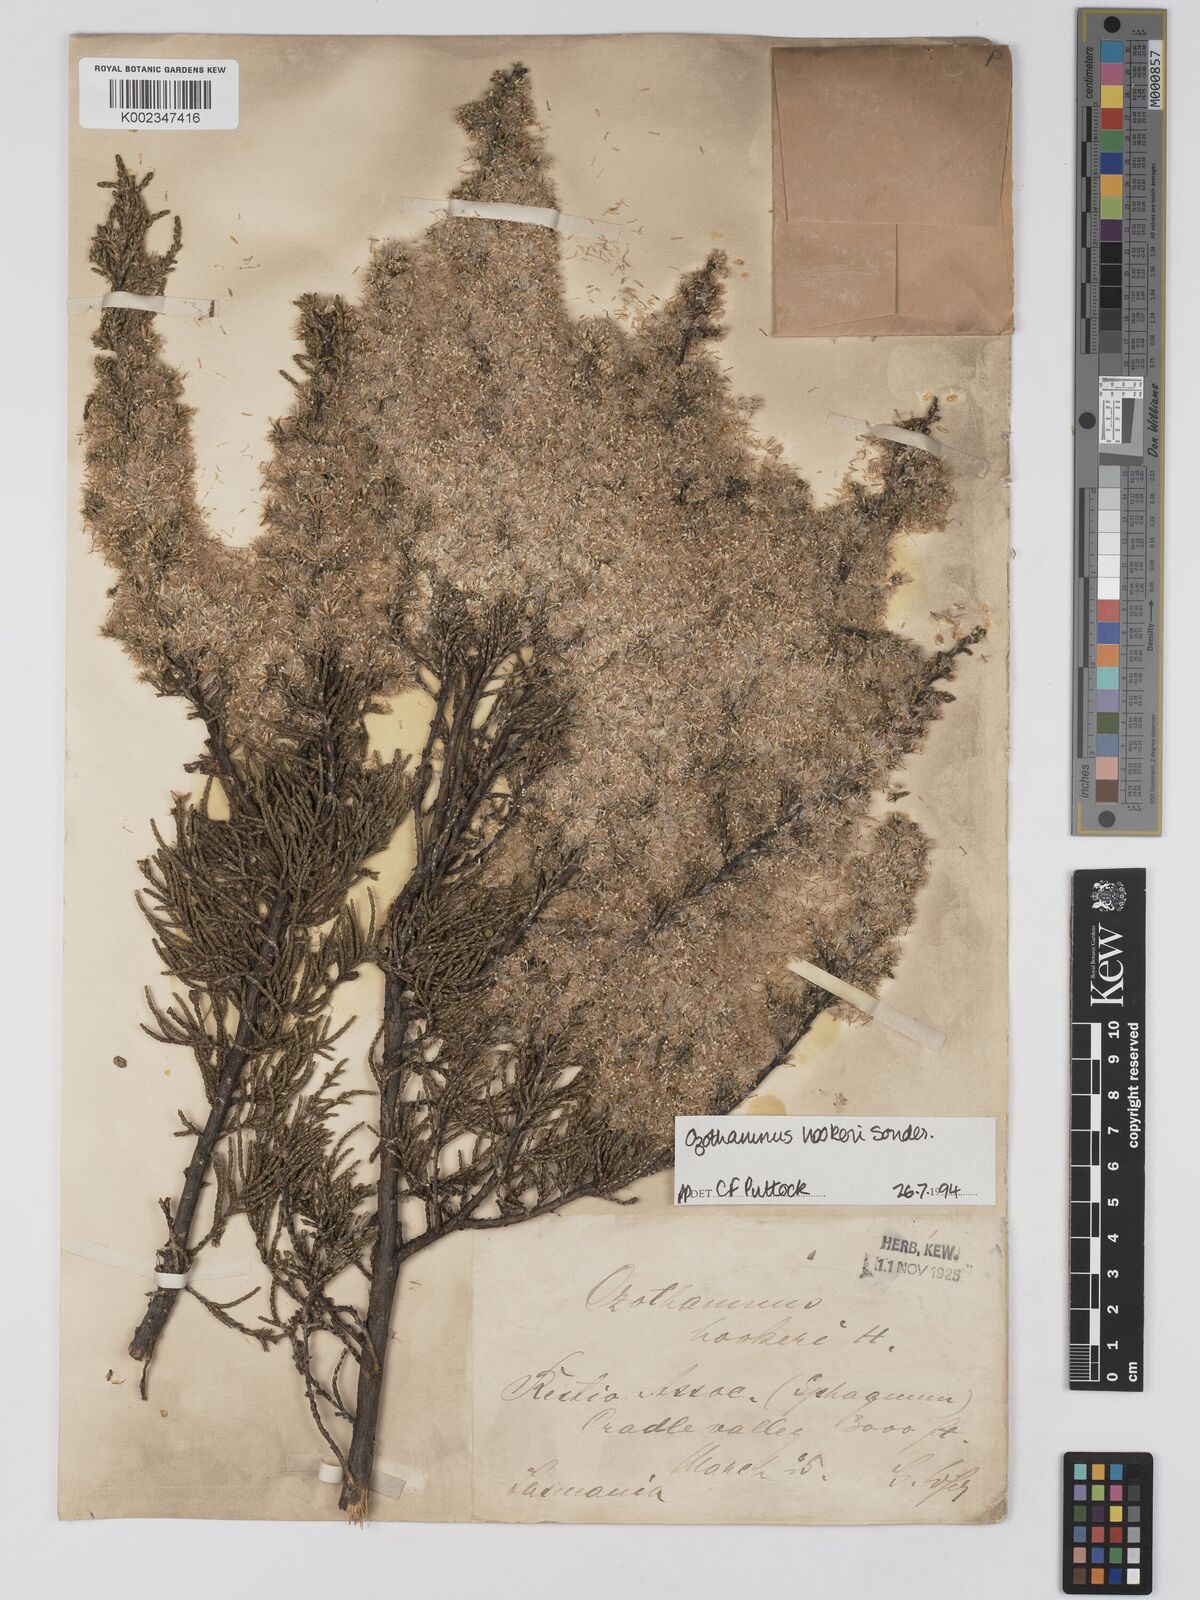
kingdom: Plantae
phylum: Tracheophyta
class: Magnoliopsida
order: Asterales
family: Asteraceae
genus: Ozothamnus
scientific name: Ozothamnus hookeri
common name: Kerosene-bush
